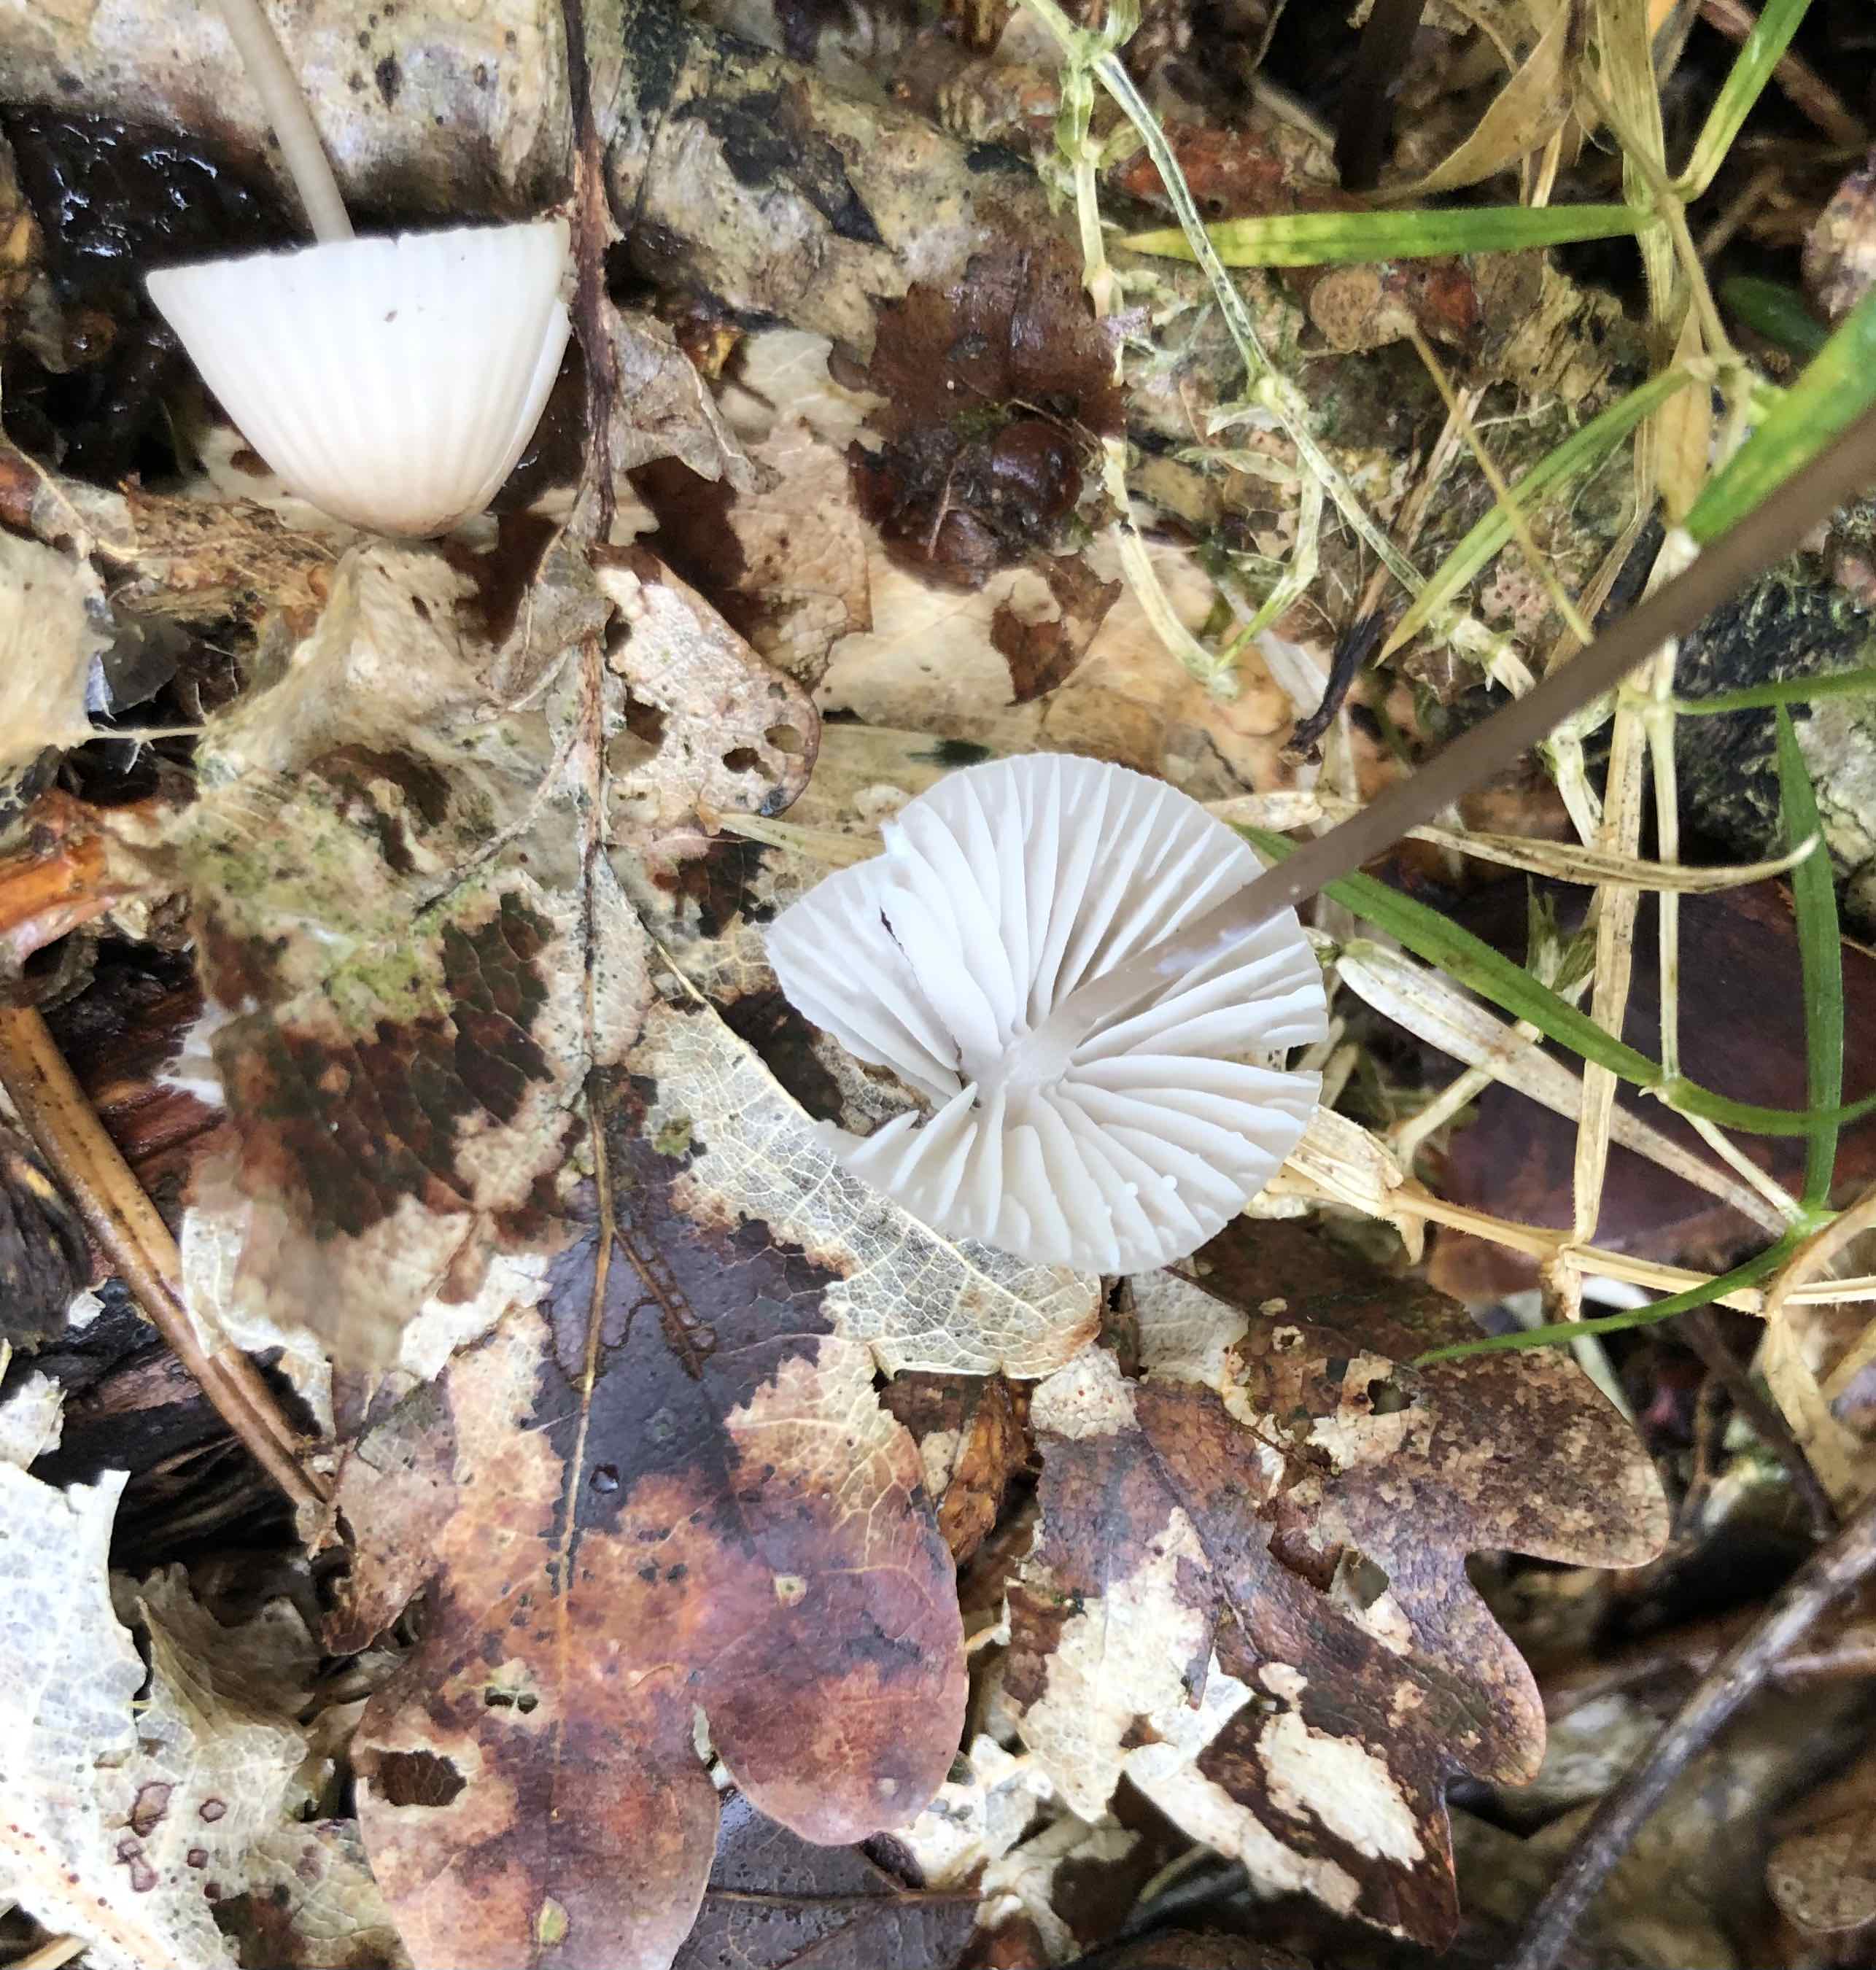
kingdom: Fungi
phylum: Basidiomycota
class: Agaricomycetes
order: Agaricales
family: Mycenaceae
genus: Mycena
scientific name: Mycena galopus
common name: hvidmælket huesvamp
